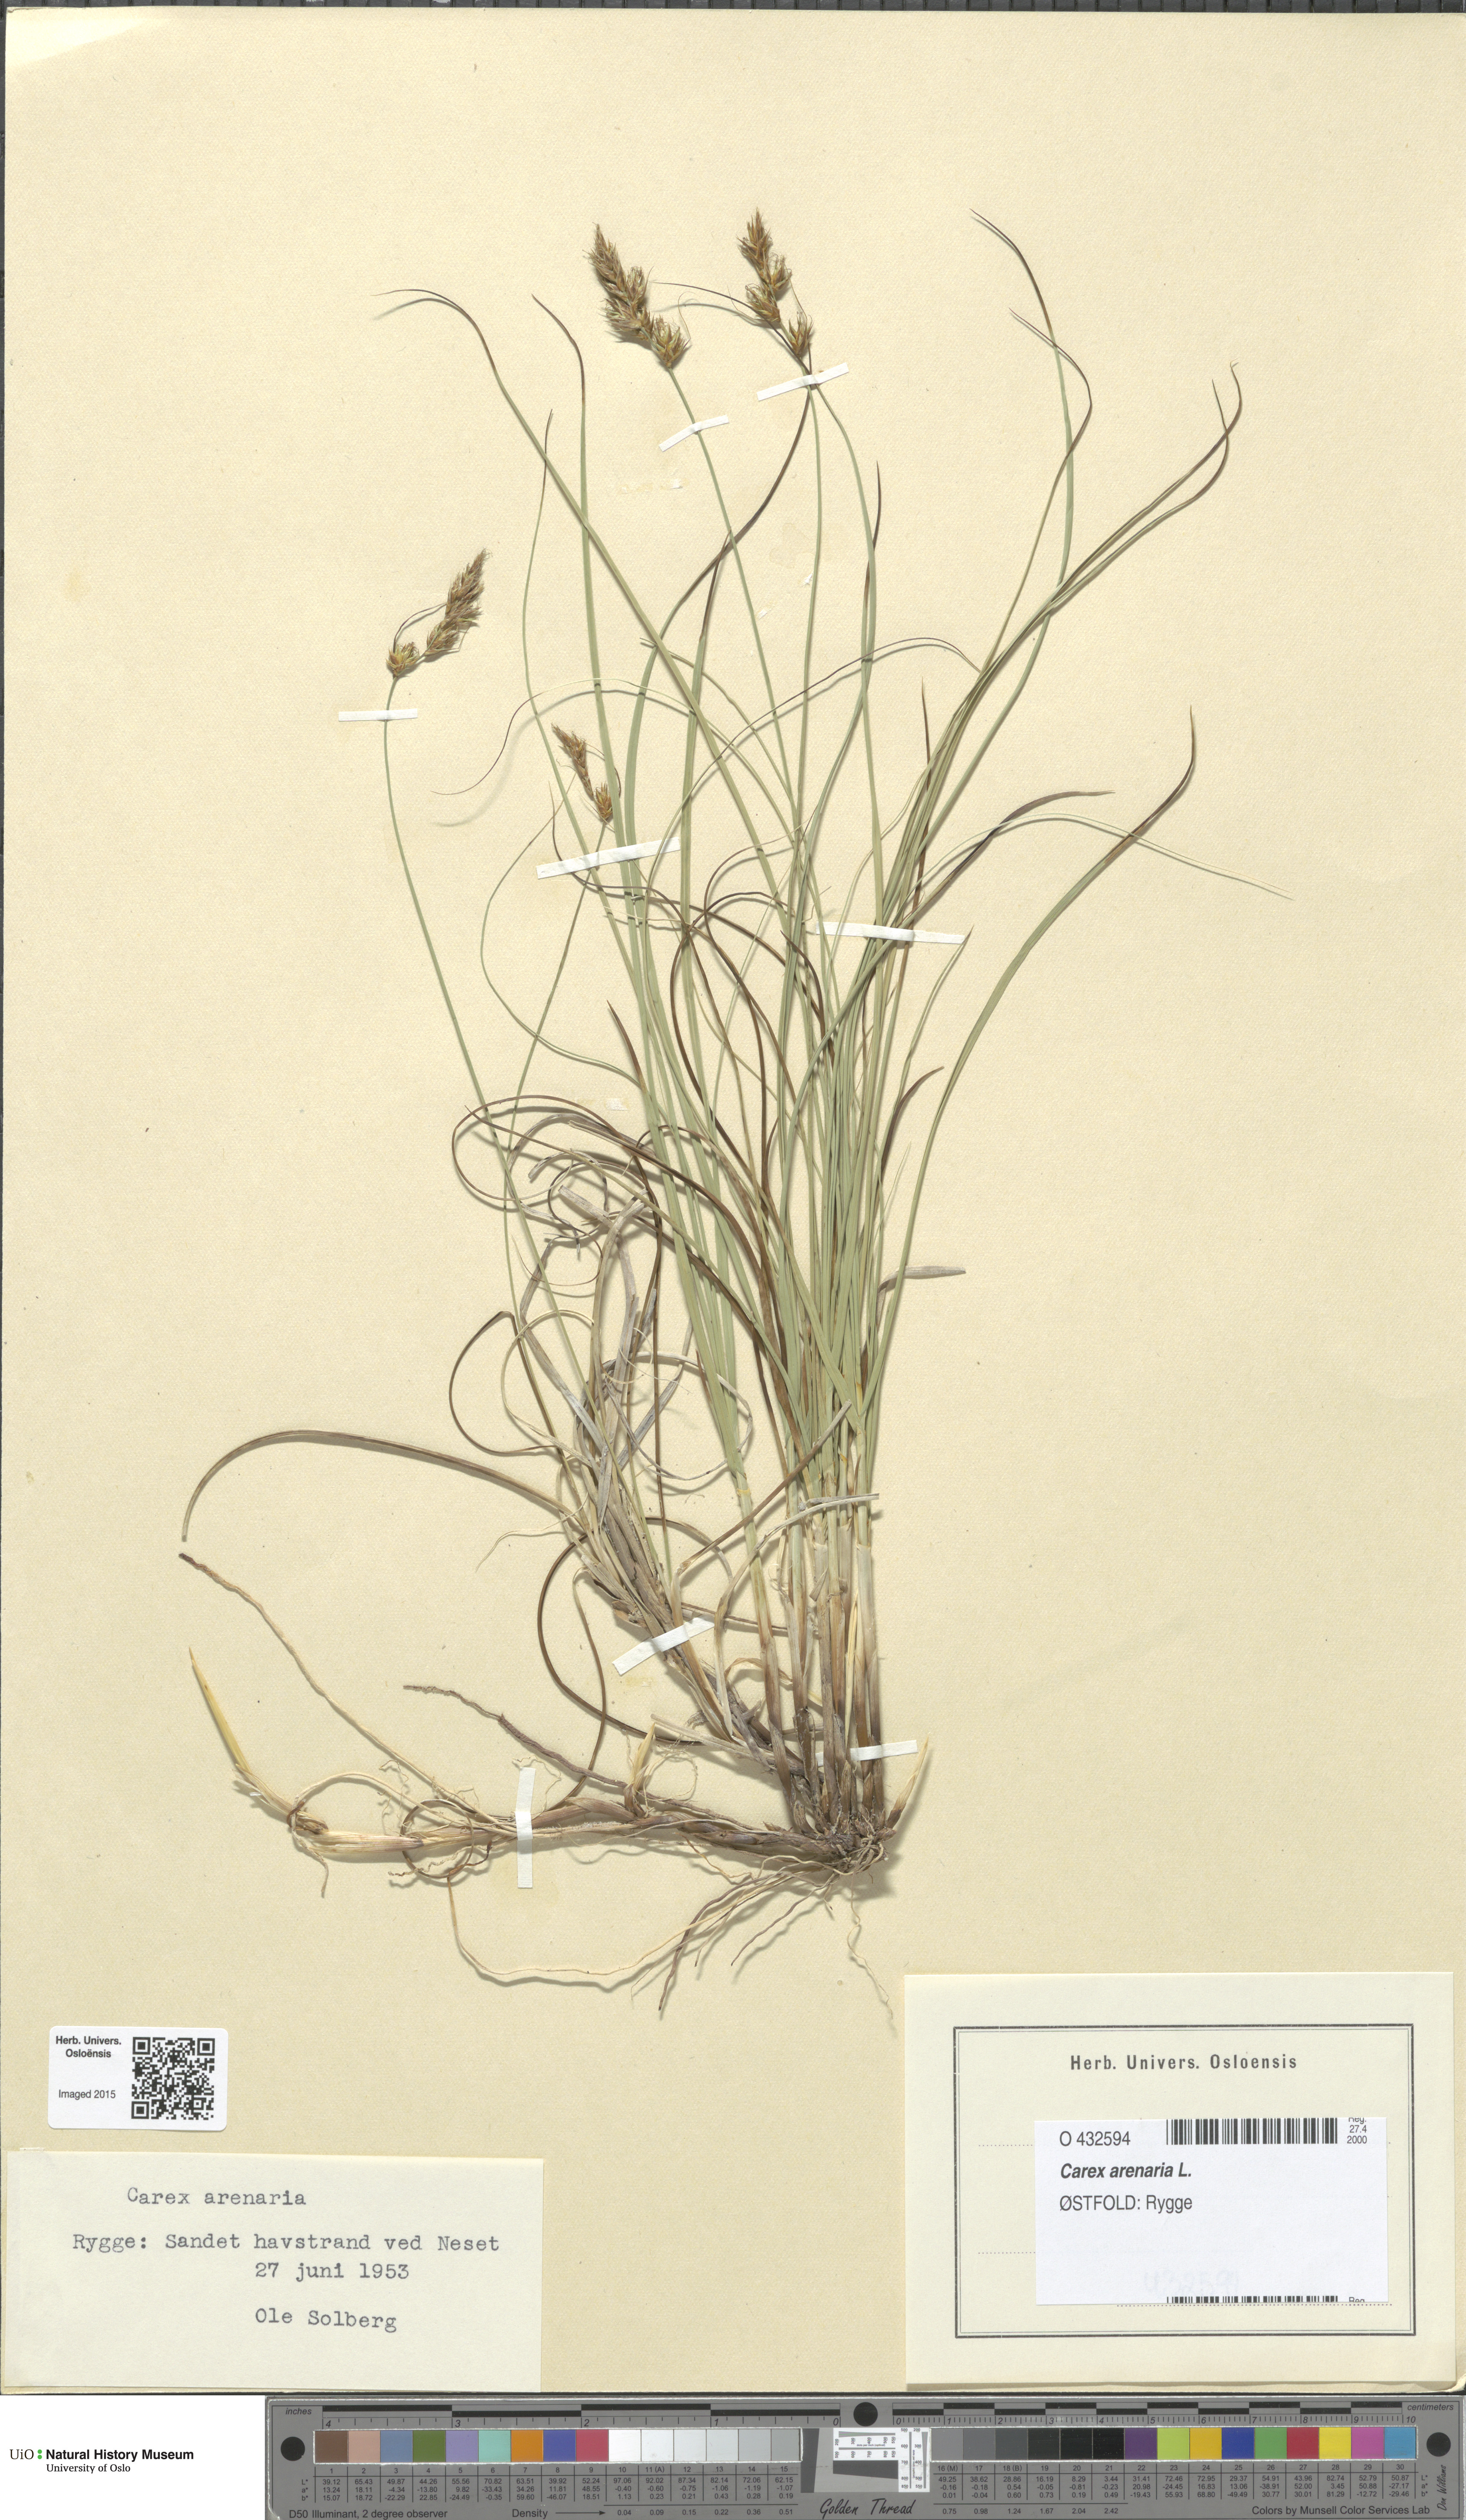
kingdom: Plantae
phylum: Tracheophyta
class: Liliopsida
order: Poales
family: Cyperaceae
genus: Carex
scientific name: Carex arenaria
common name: Sand sedge
